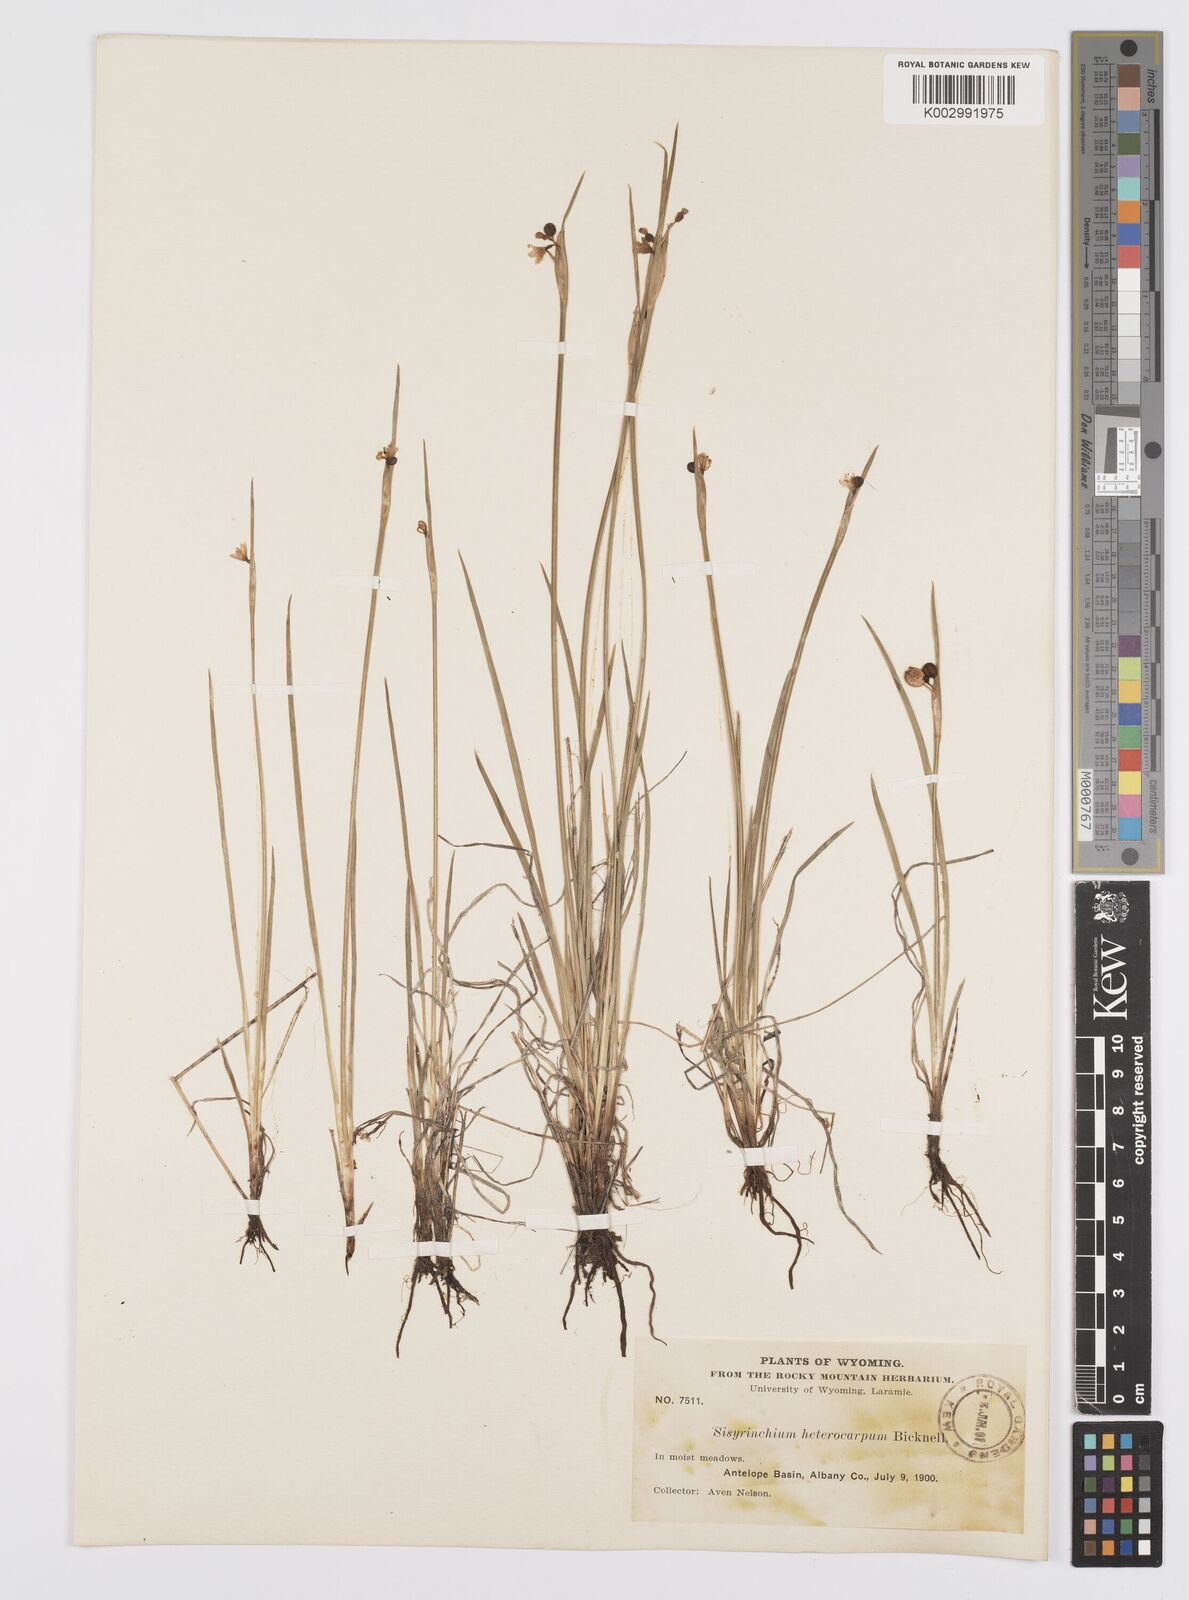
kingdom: Plantae
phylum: Tracheophyta
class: Liliopsida
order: Asparagales
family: Iridaceae
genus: Sisyrinchium
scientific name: Sisyrinchium montanum
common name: American blue-eyed-grass
